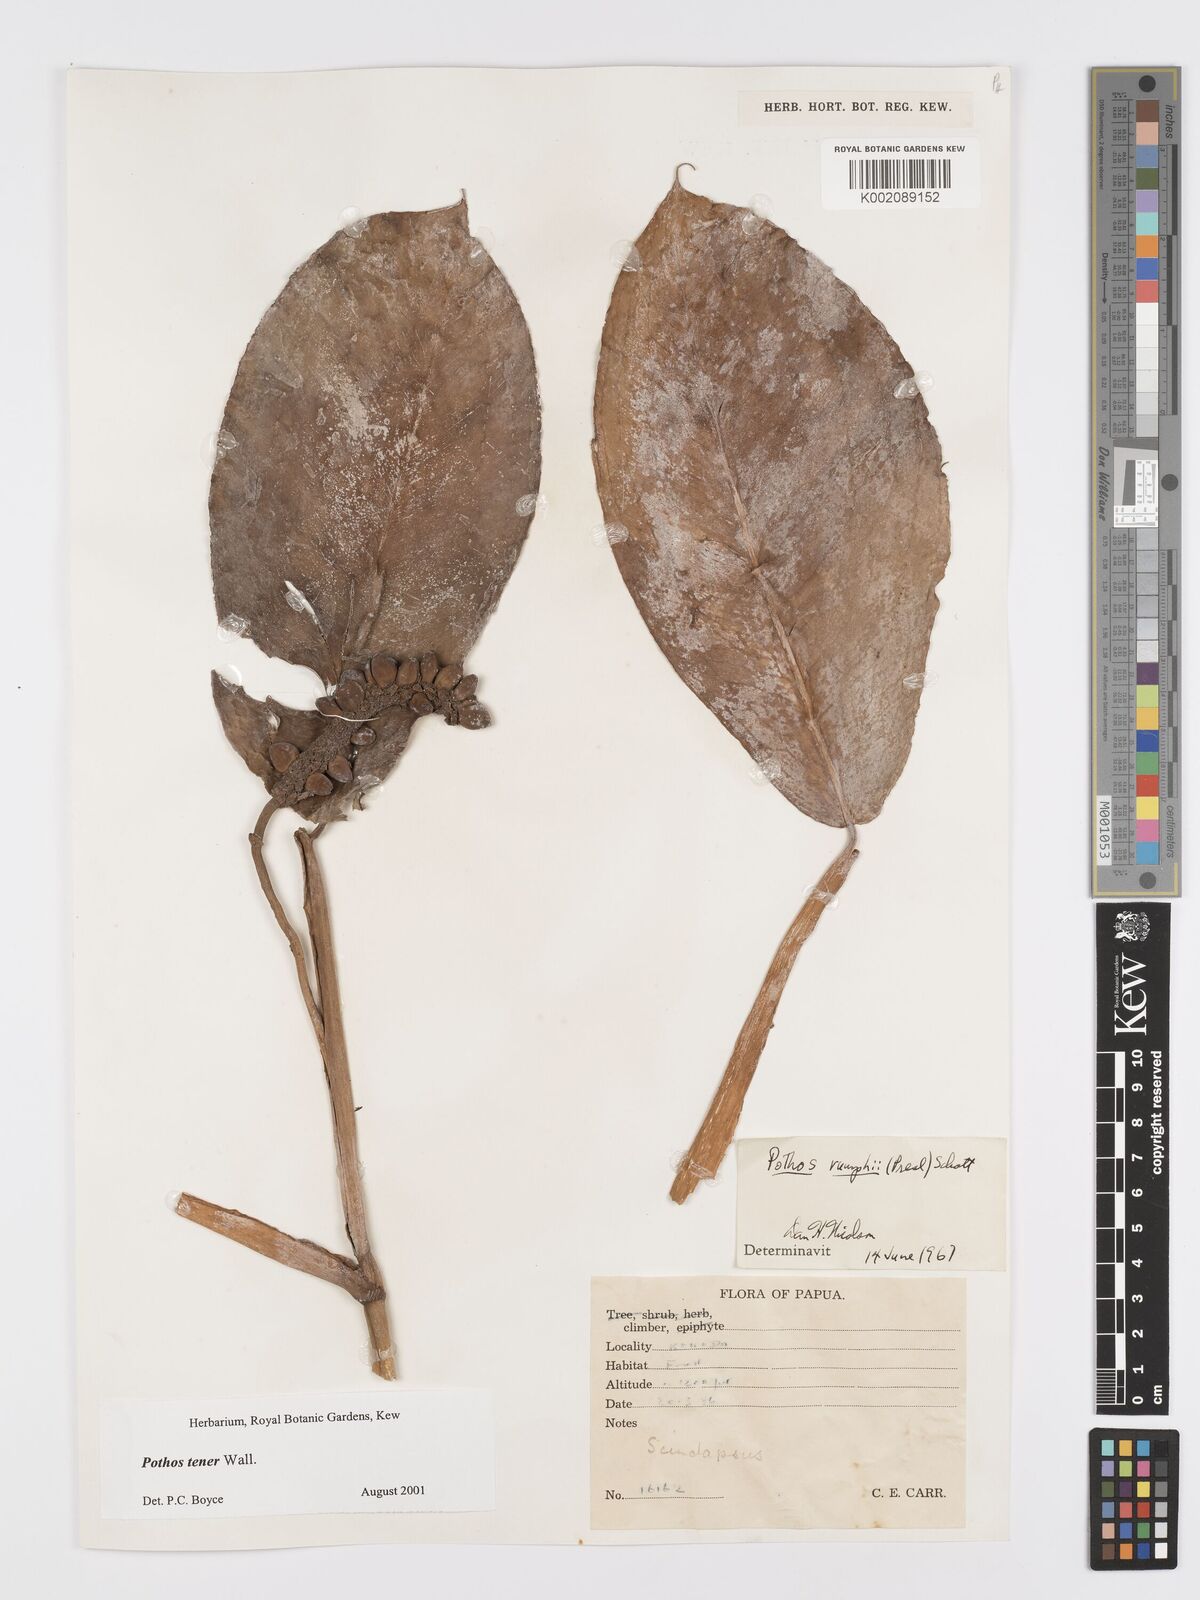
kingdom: Plantae
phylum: Tracheophyta
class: Liliopsida
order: Alismatales
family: Araceae
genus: Pothos
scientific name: Pothos tener
